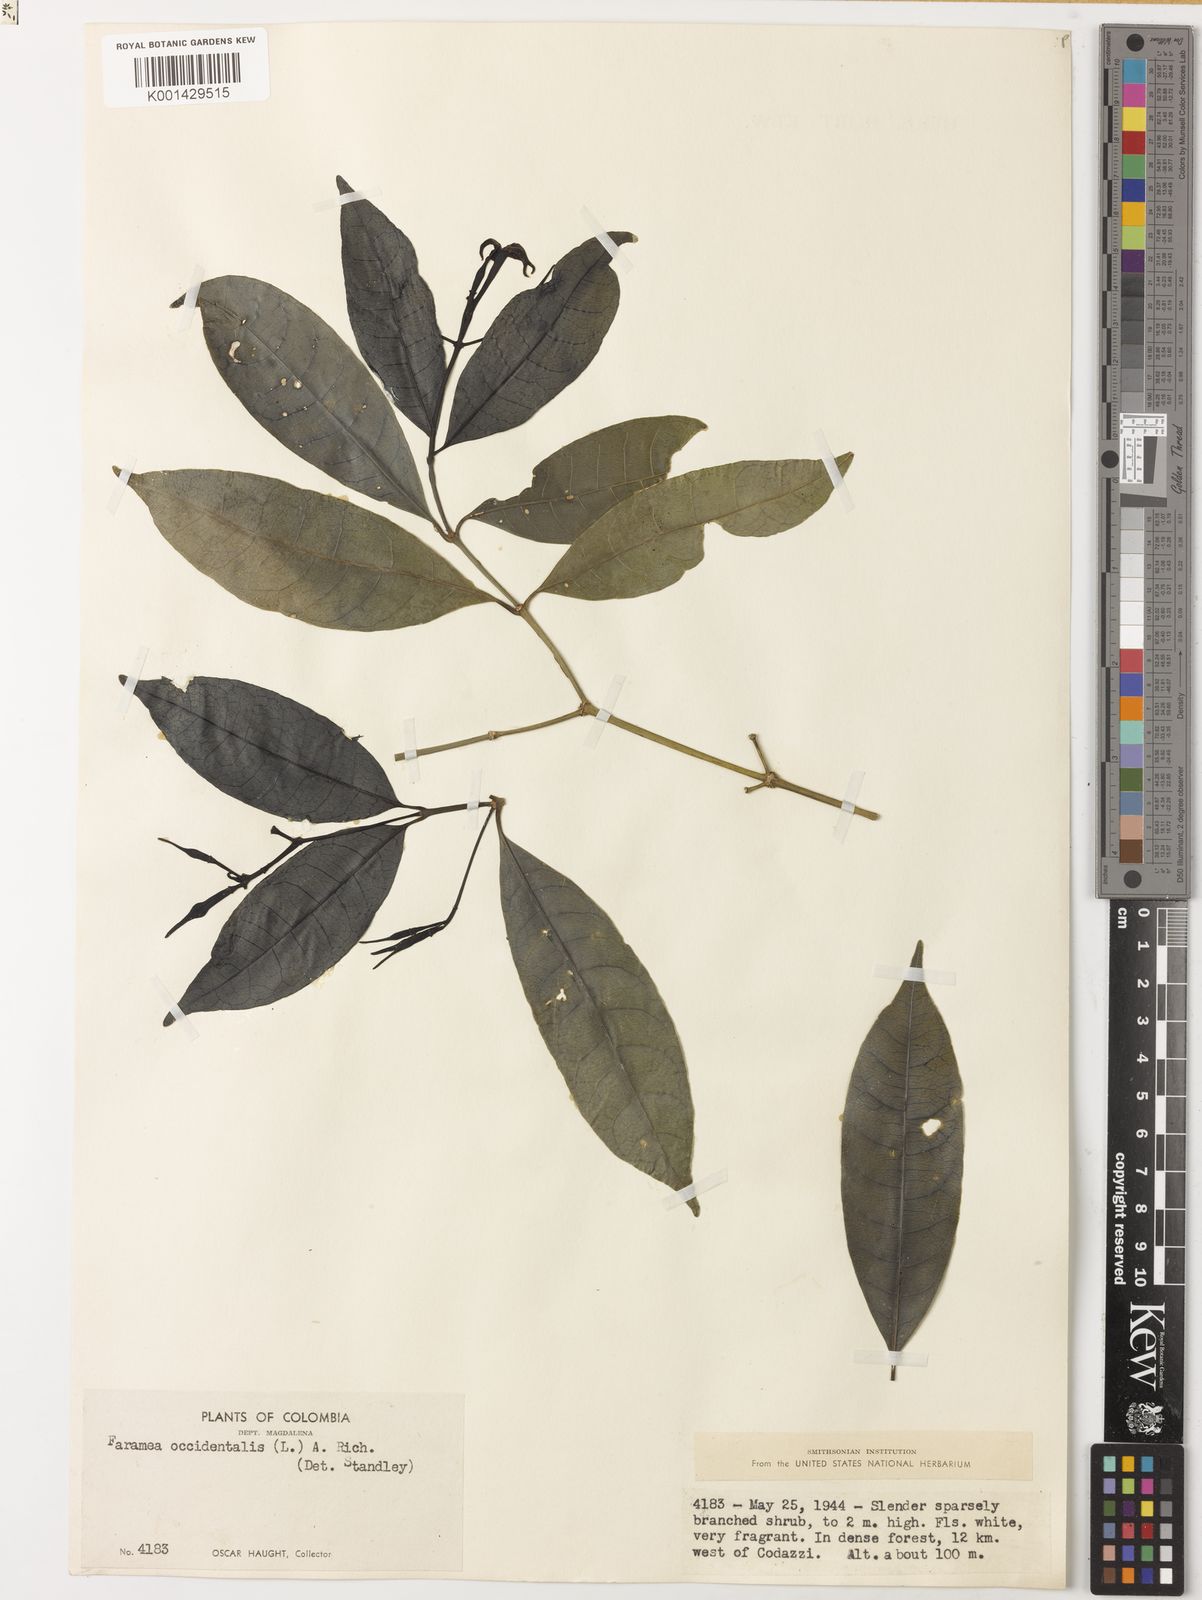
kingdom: Plantae
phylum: Tracheophyta
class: Magnoliopsida
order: Gentianales
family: Rubiaceae
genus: Faramea
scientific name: Faramea occidentalis
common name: False coffee
